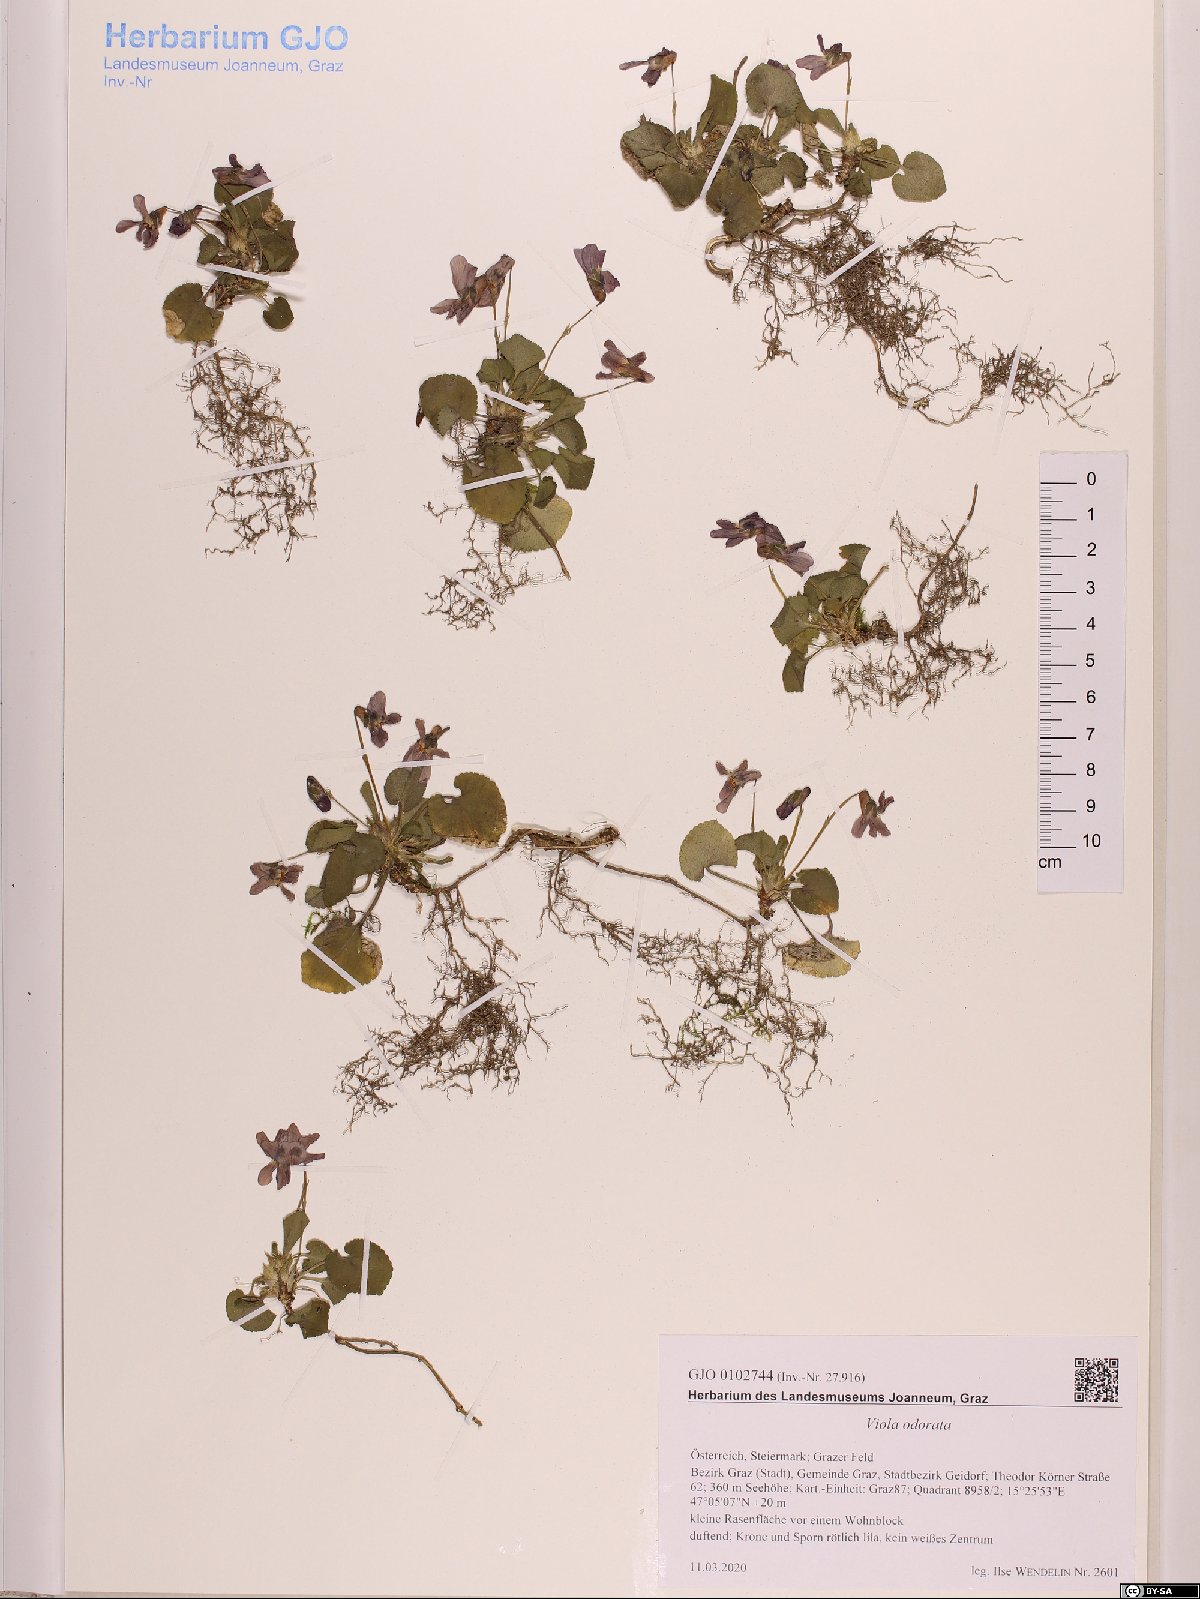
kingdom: Plantae
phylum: Tracheophyta
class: Magnoliopsida
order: Malpighiales
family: Violaceae
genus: Viola
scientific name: Viola odorata
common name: Sweet violet
